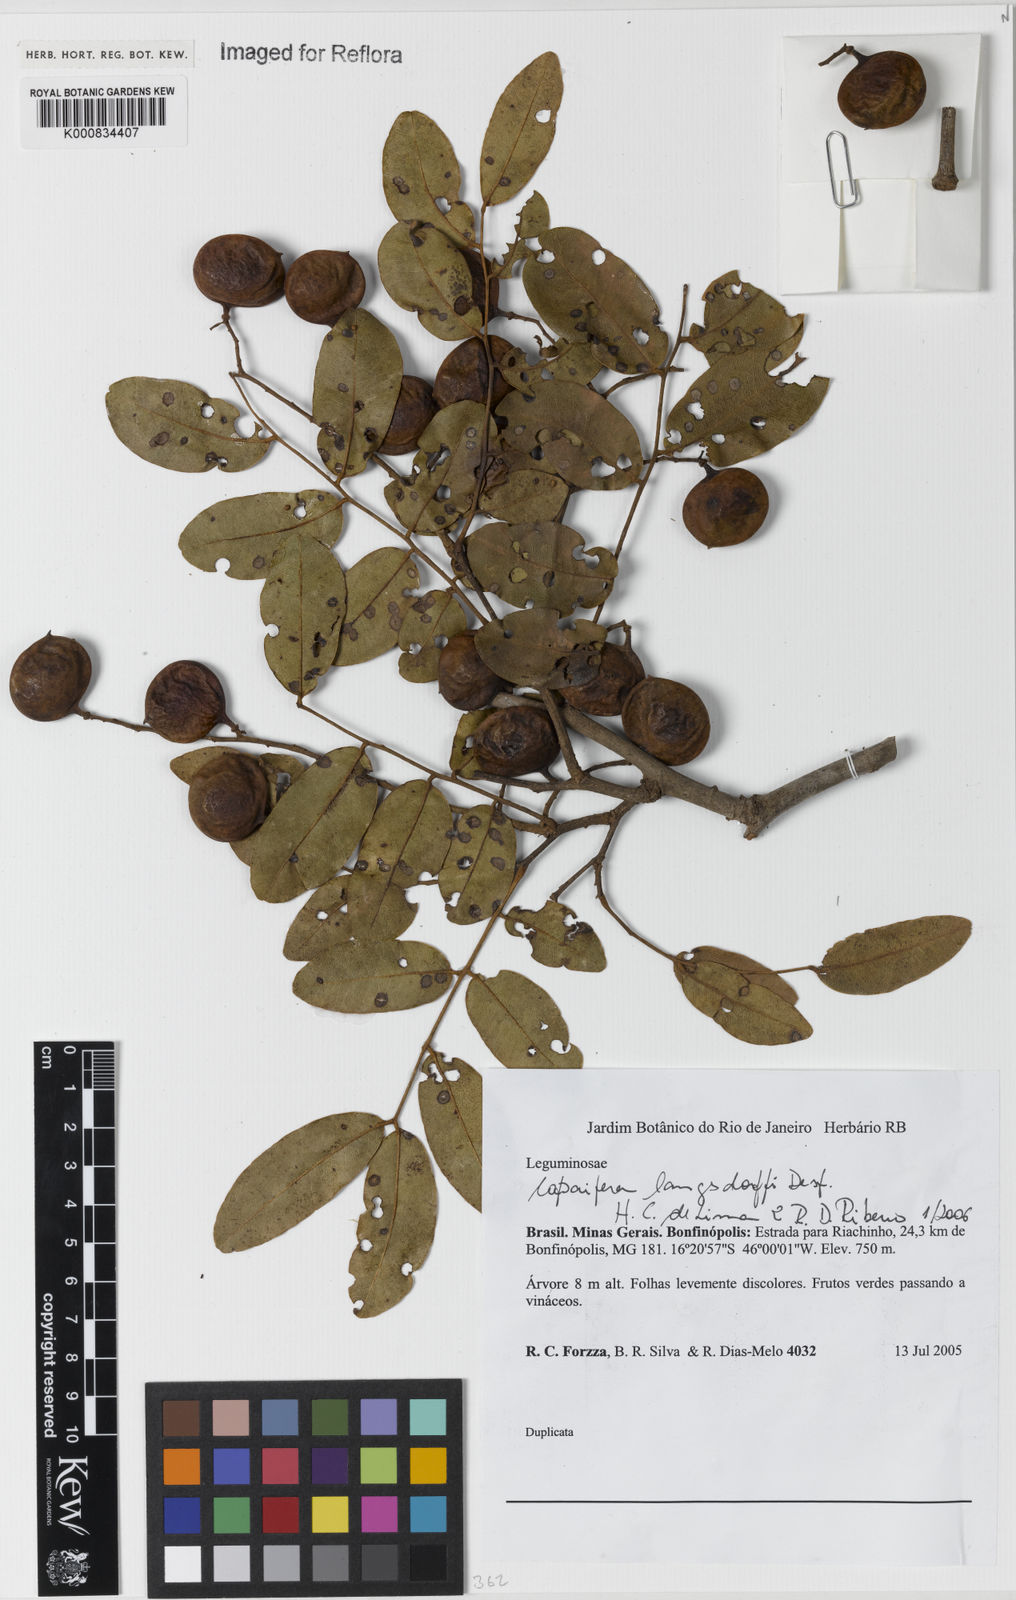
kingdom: Plantae
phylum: Tracheophyta
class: Magnoliopsida
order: Fabales
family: Fabaceae
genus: Copaifera
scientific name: Copaifera langsdorffii
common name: Brazilian diesel tree
